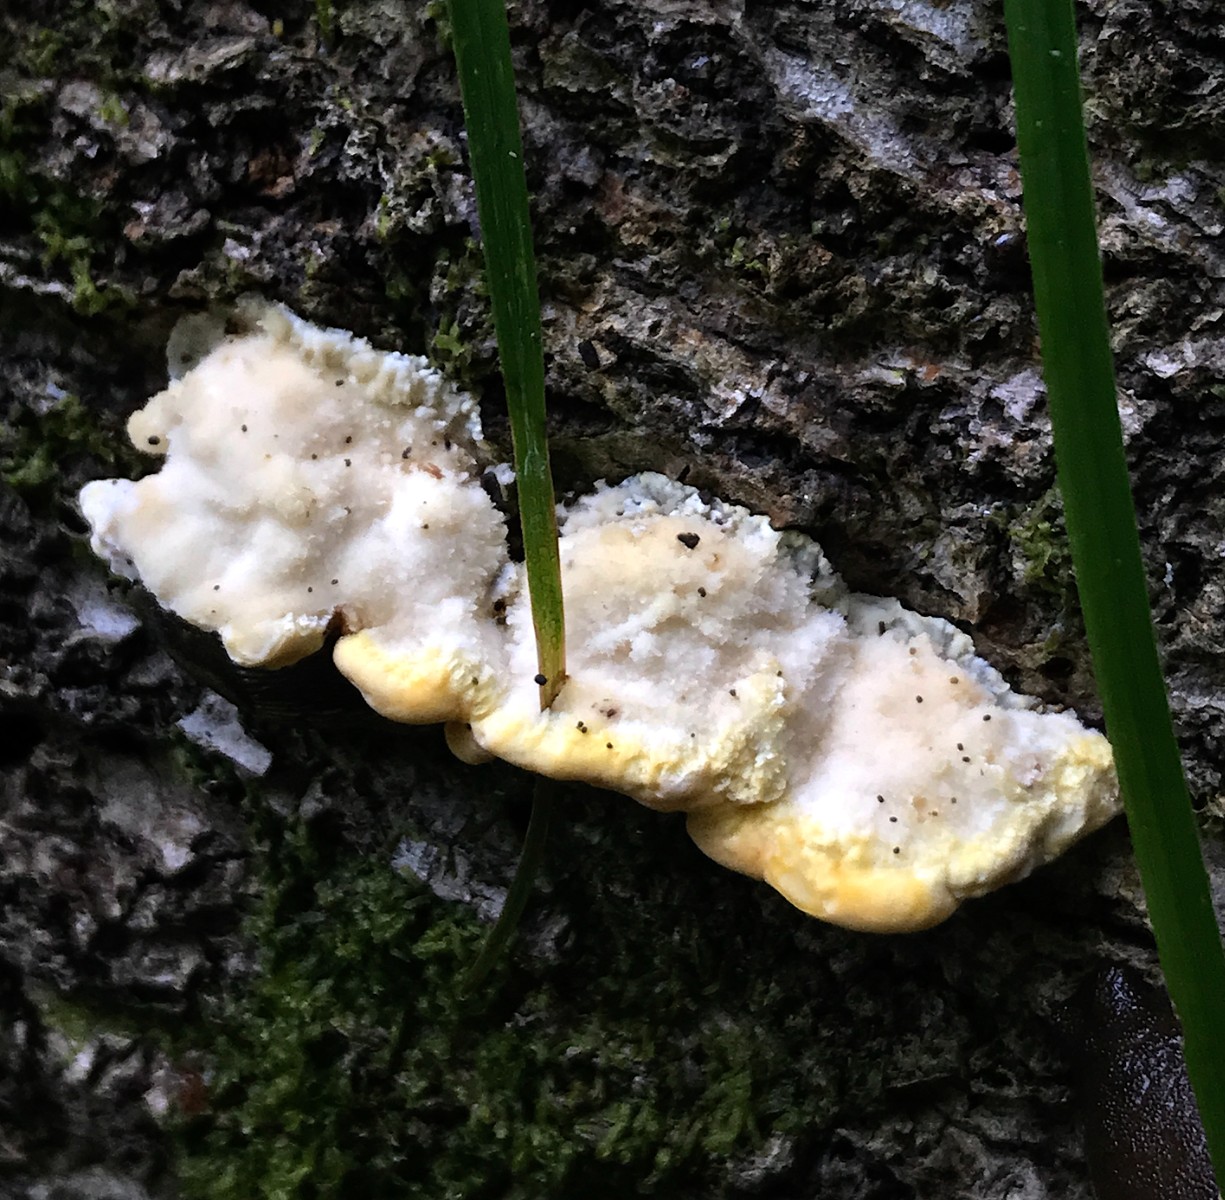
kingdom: Fungi
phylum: Basidiomycota
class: Agaricomycetes
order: Polyporales
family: Steccherinaceae
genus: Antrodiella
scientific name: Antrodiella serpula
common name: gulrandet elastikporesvamp
